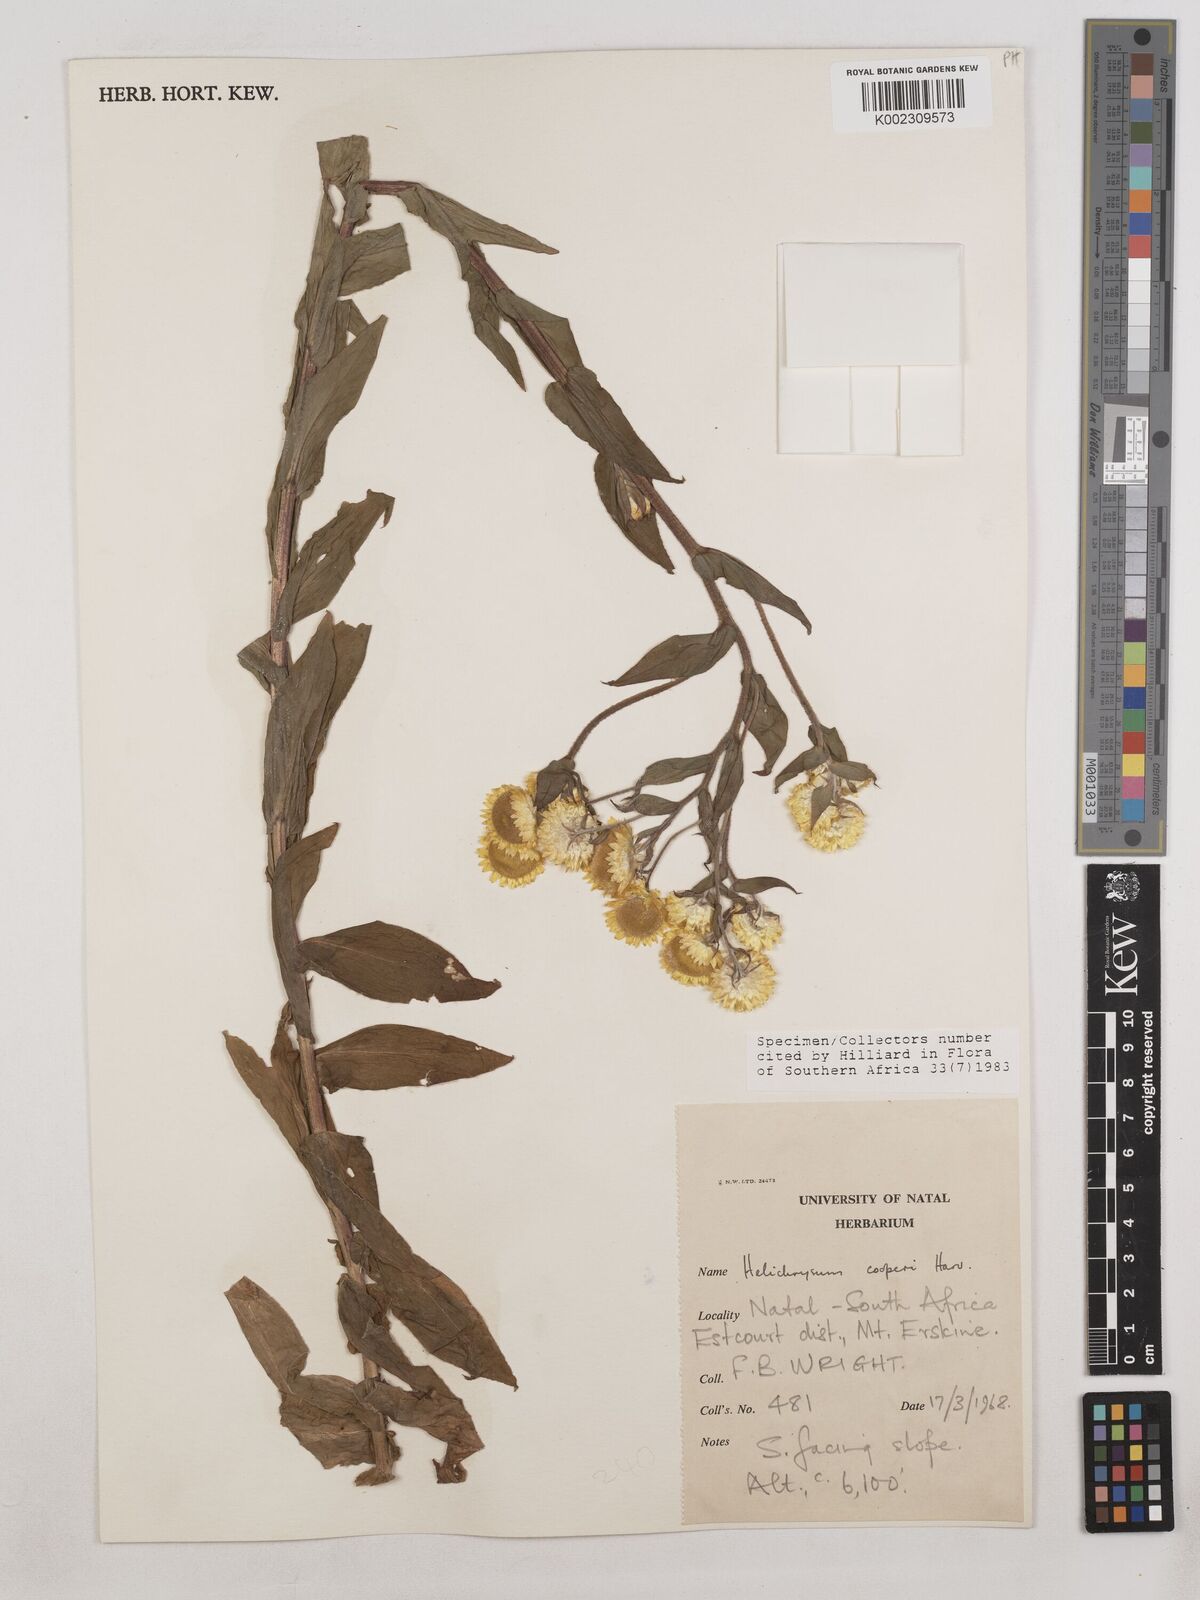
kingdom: Plantae
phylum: Tracheophyta
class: Magnoliopsida
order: Asterales
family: Asteraceae
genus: Helichrysum
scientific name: Helichrysum cooperi
